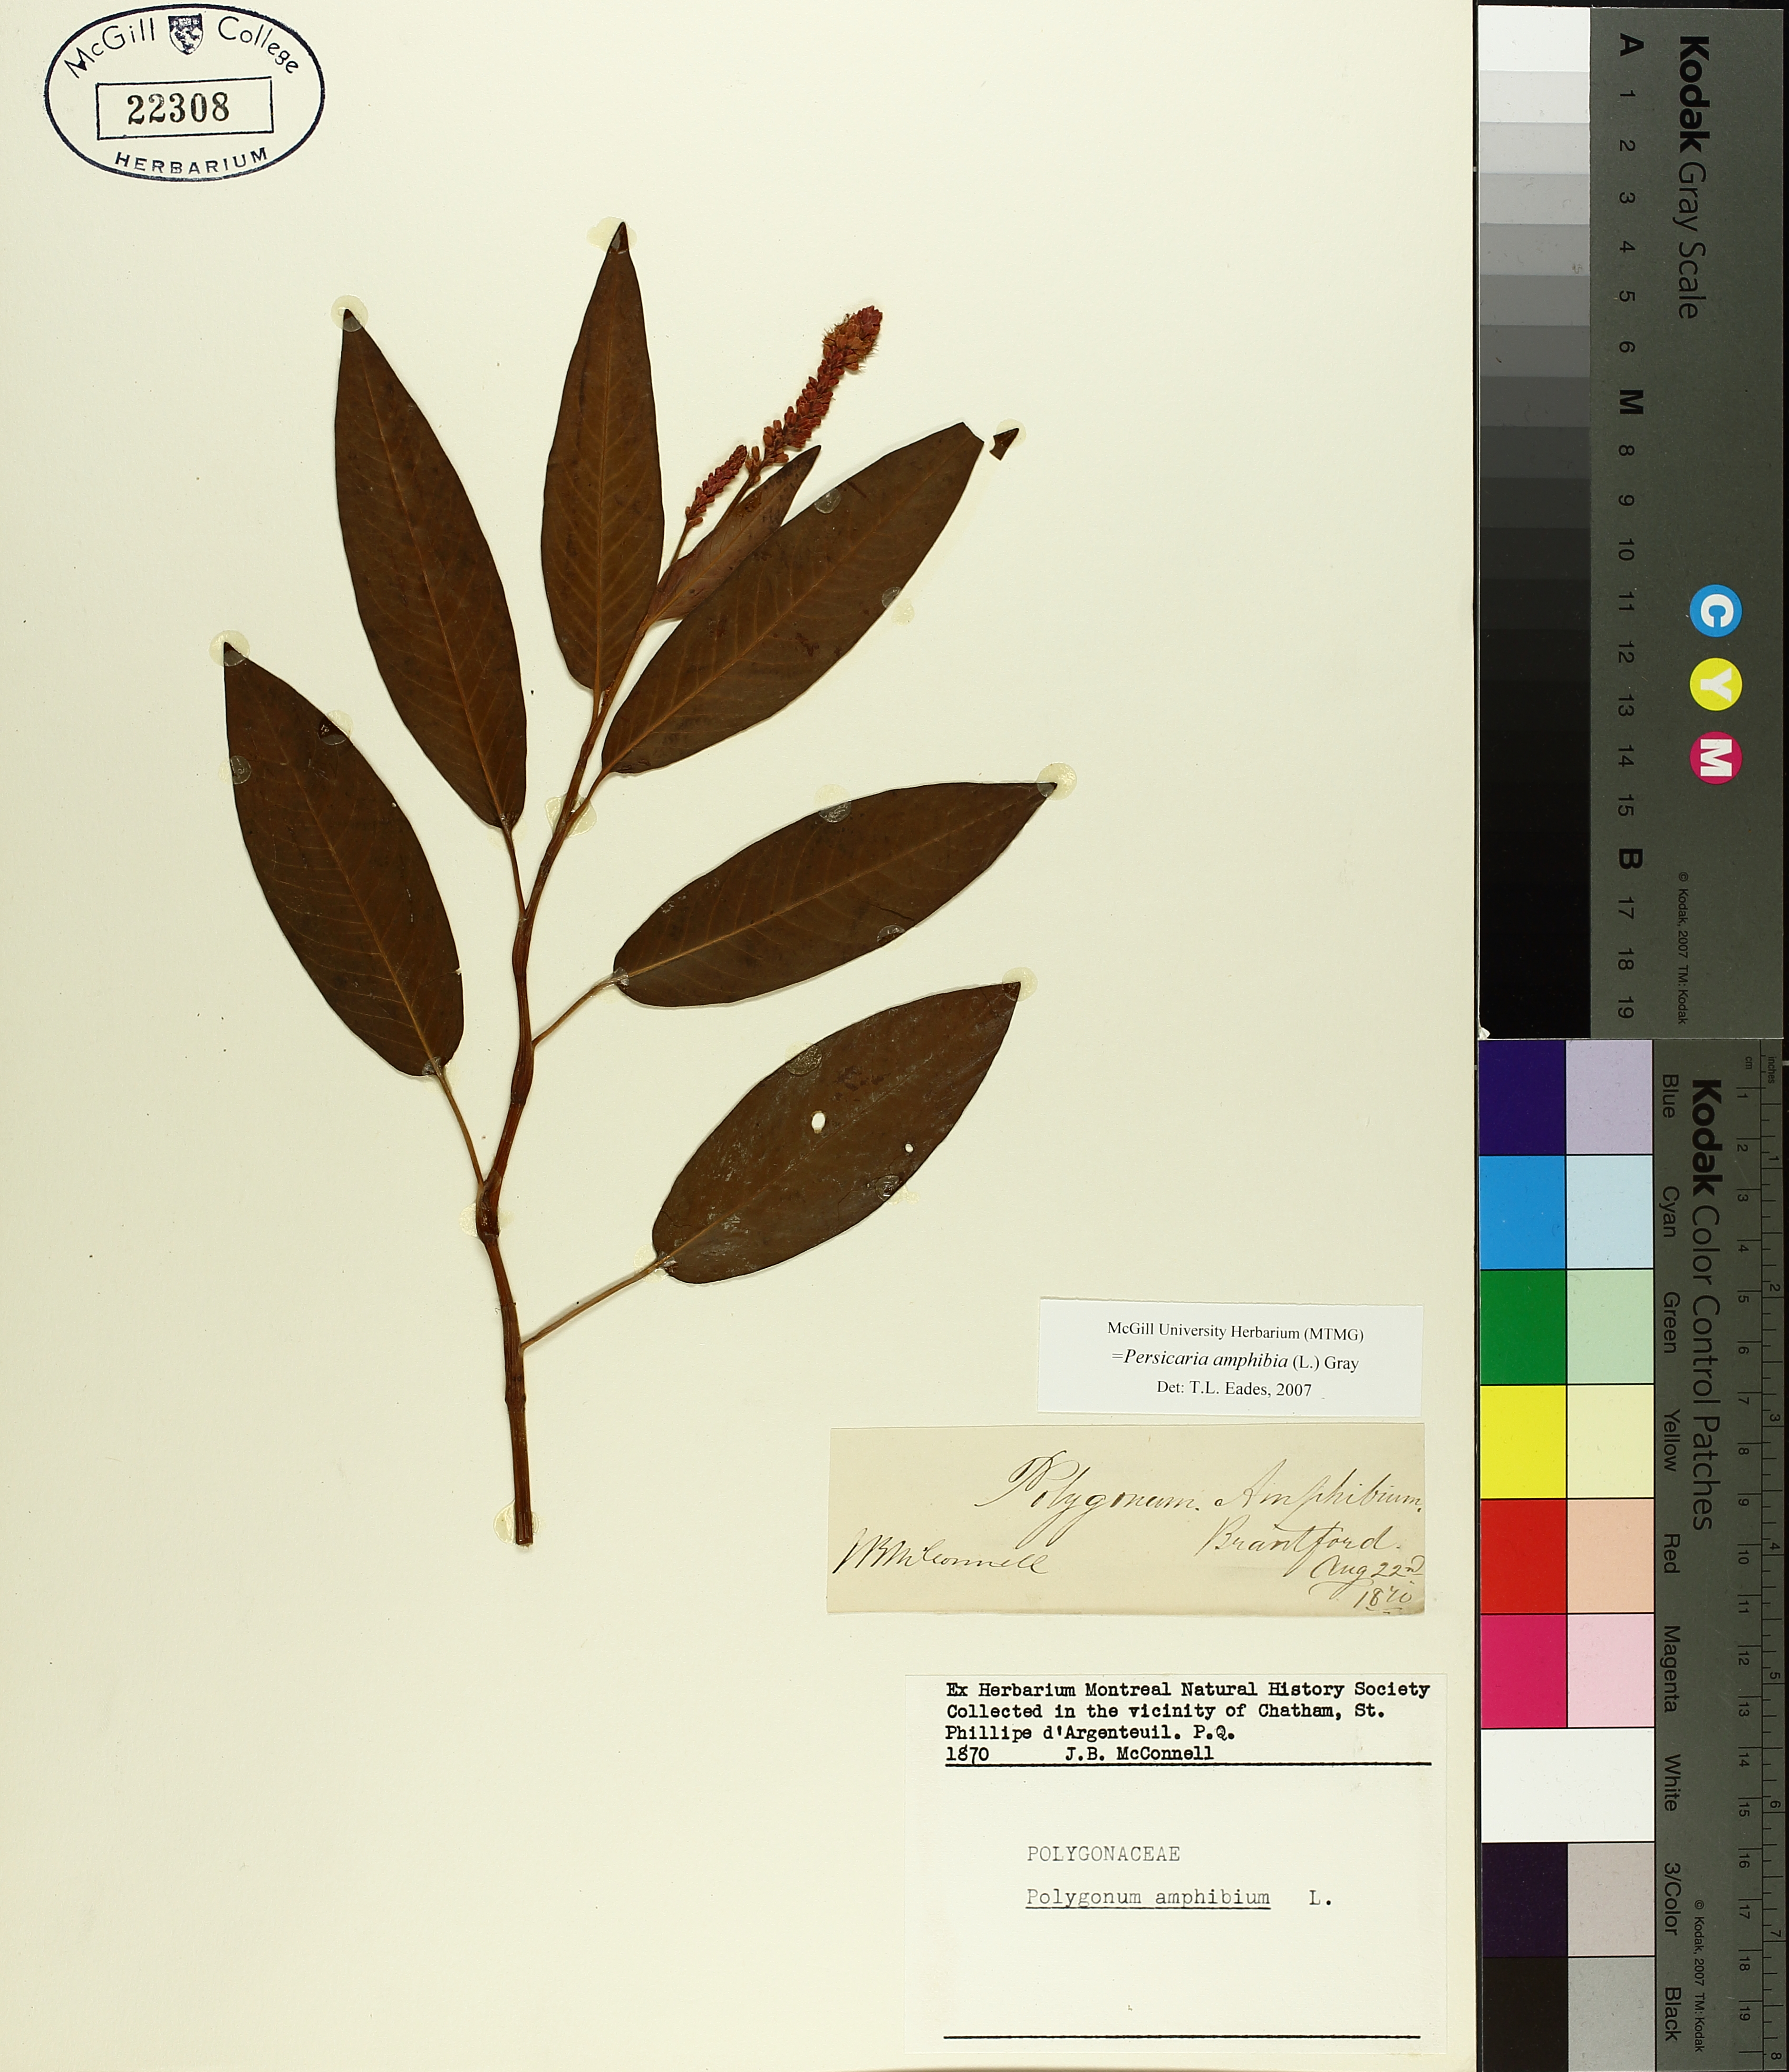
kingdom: Plantae
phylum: Tracheophyta
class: Magnoliopsida
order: Caryophyllales
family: Polygonaceae
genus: Persicaria
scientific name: Persicaria amphibia
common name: Amphibious bistort
